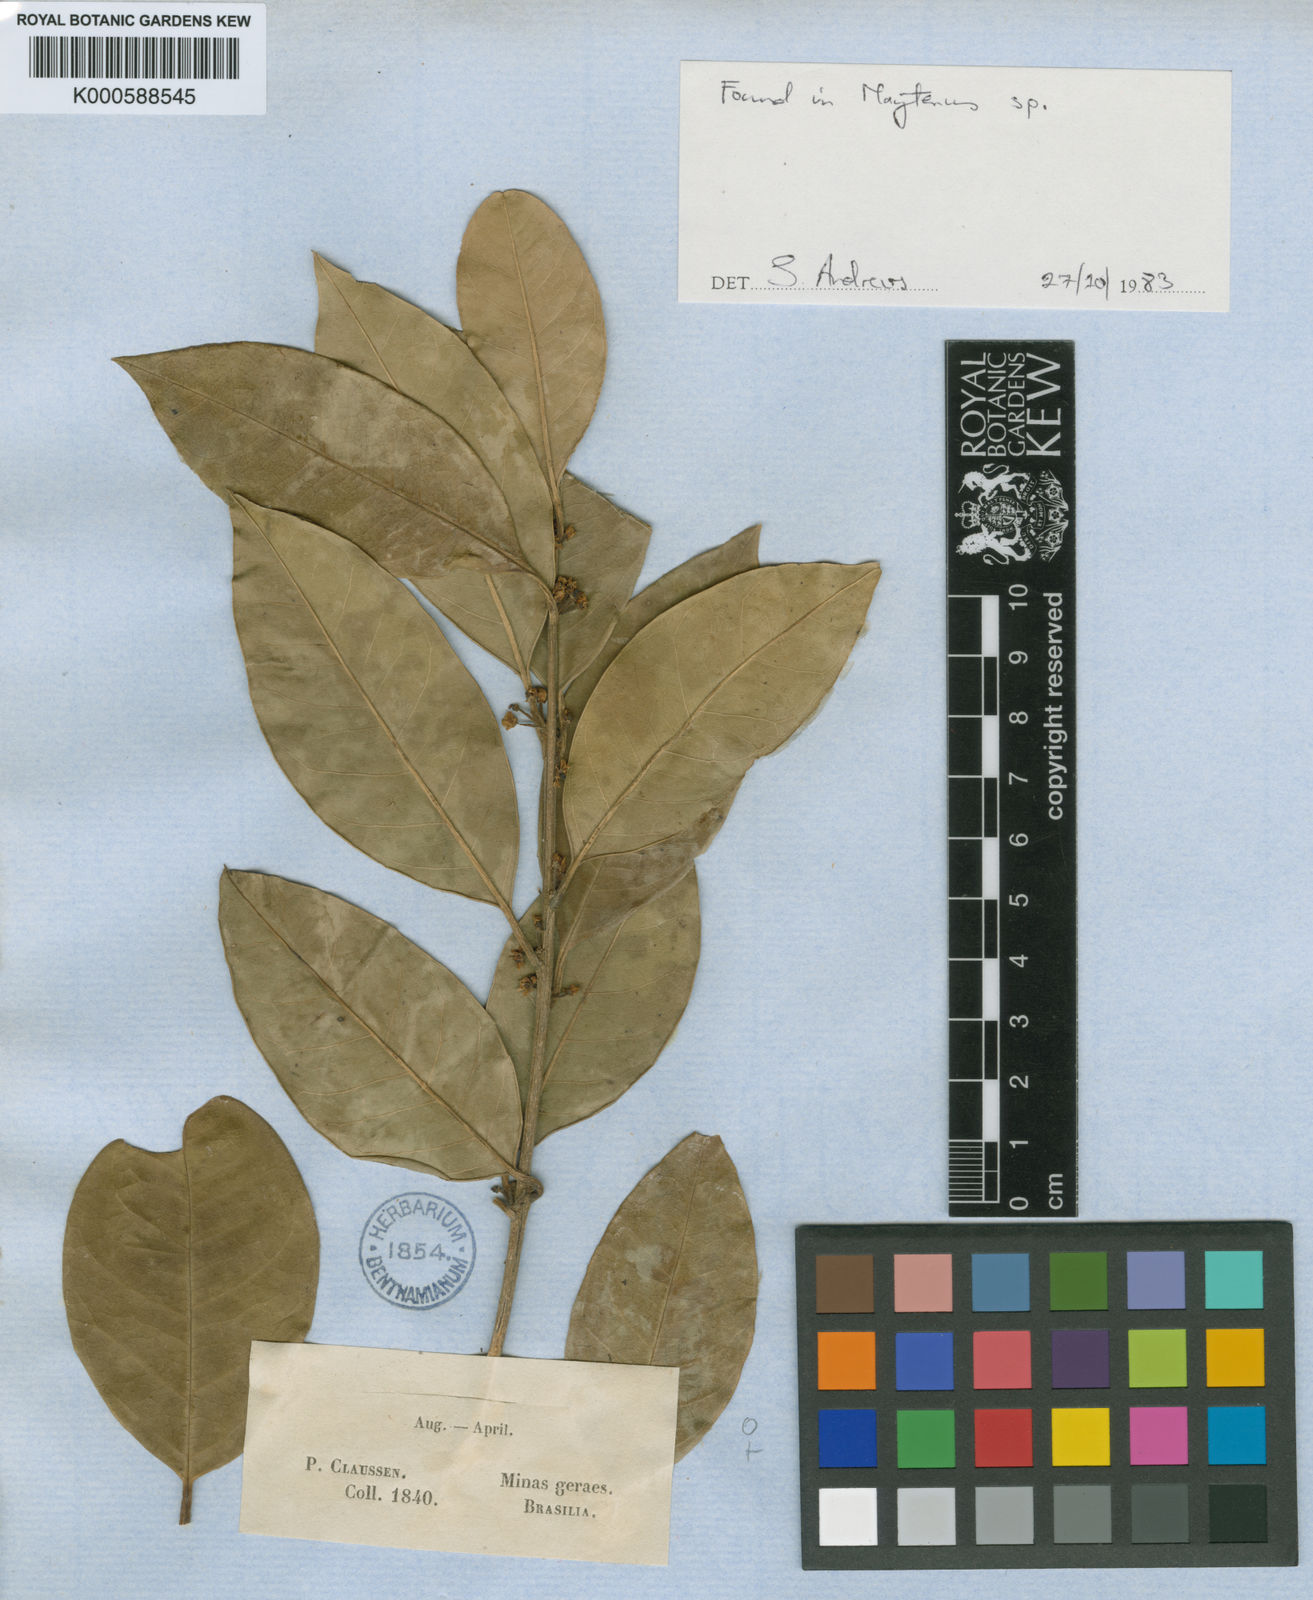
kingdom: Plantae
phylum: Tracheophyta
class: Magnoliopsida
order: Aquifoliales
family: Aquifoliaceae
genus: Ilex
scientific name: Ilex lundii
